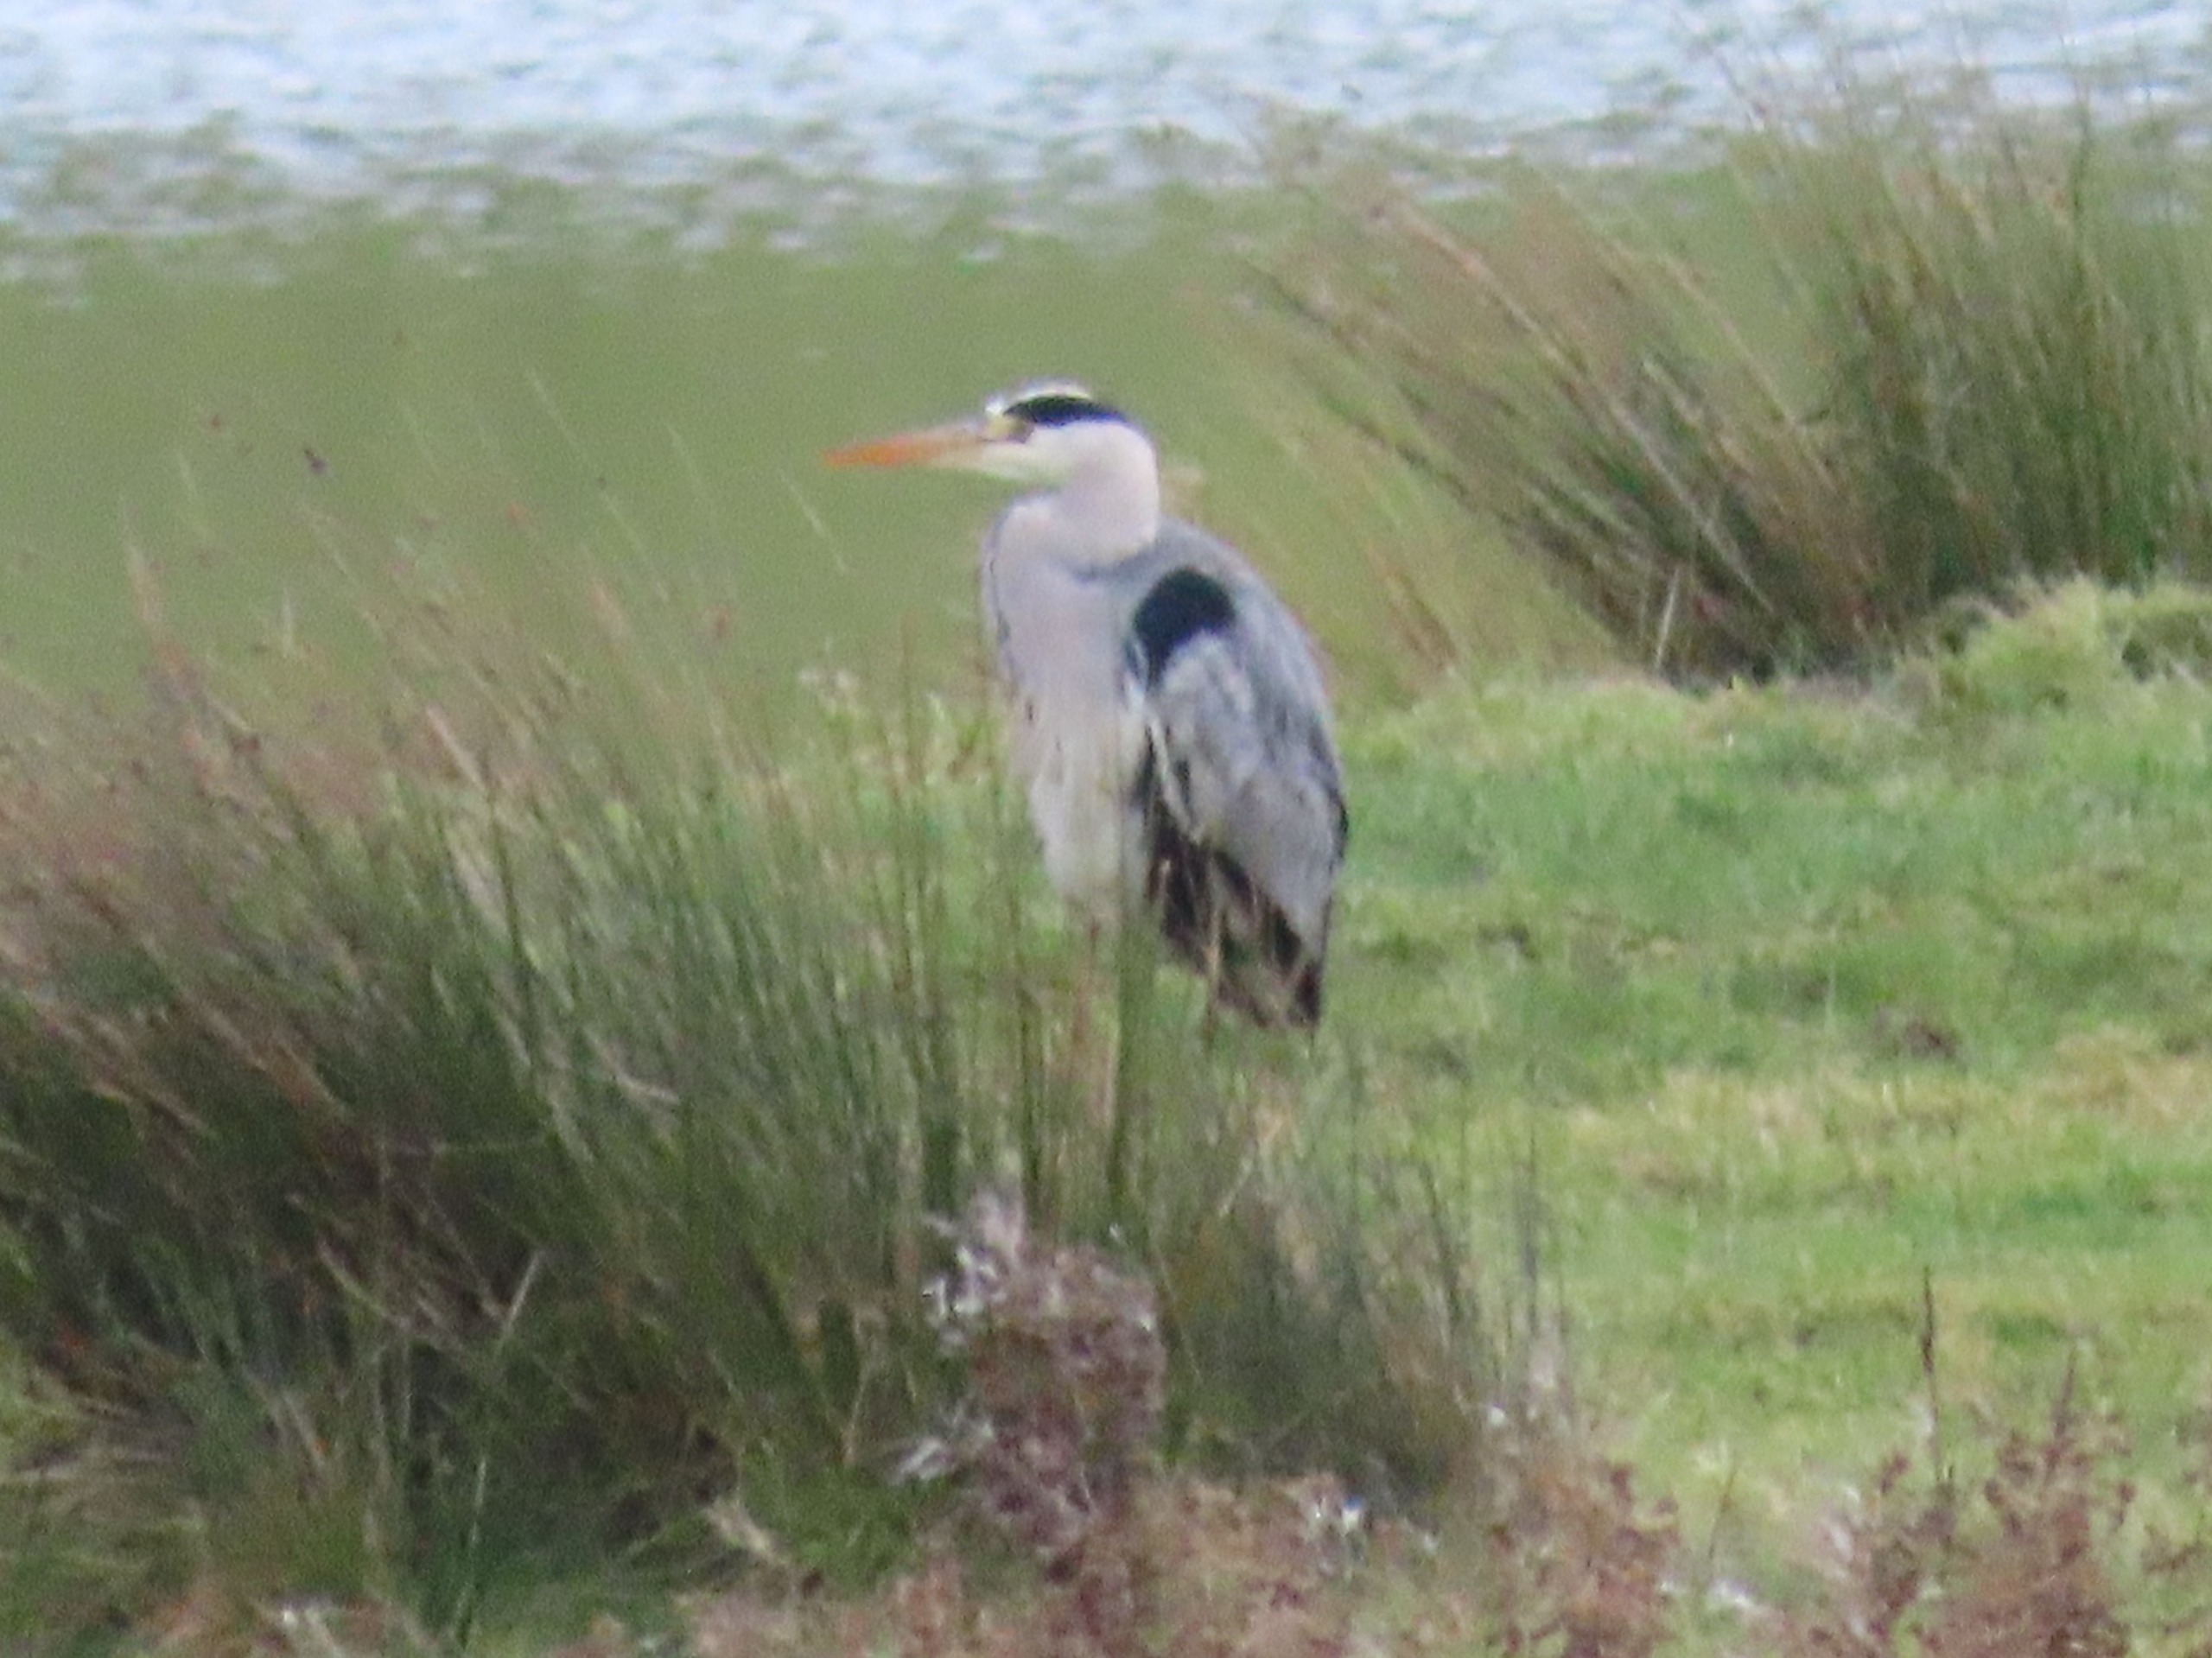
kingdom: Animalia
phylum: Chordata
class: Aves
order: Pelecaniformes
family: Ardeidae
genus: Ardea
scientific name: Ardea cinerea
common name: Fiskehejre
